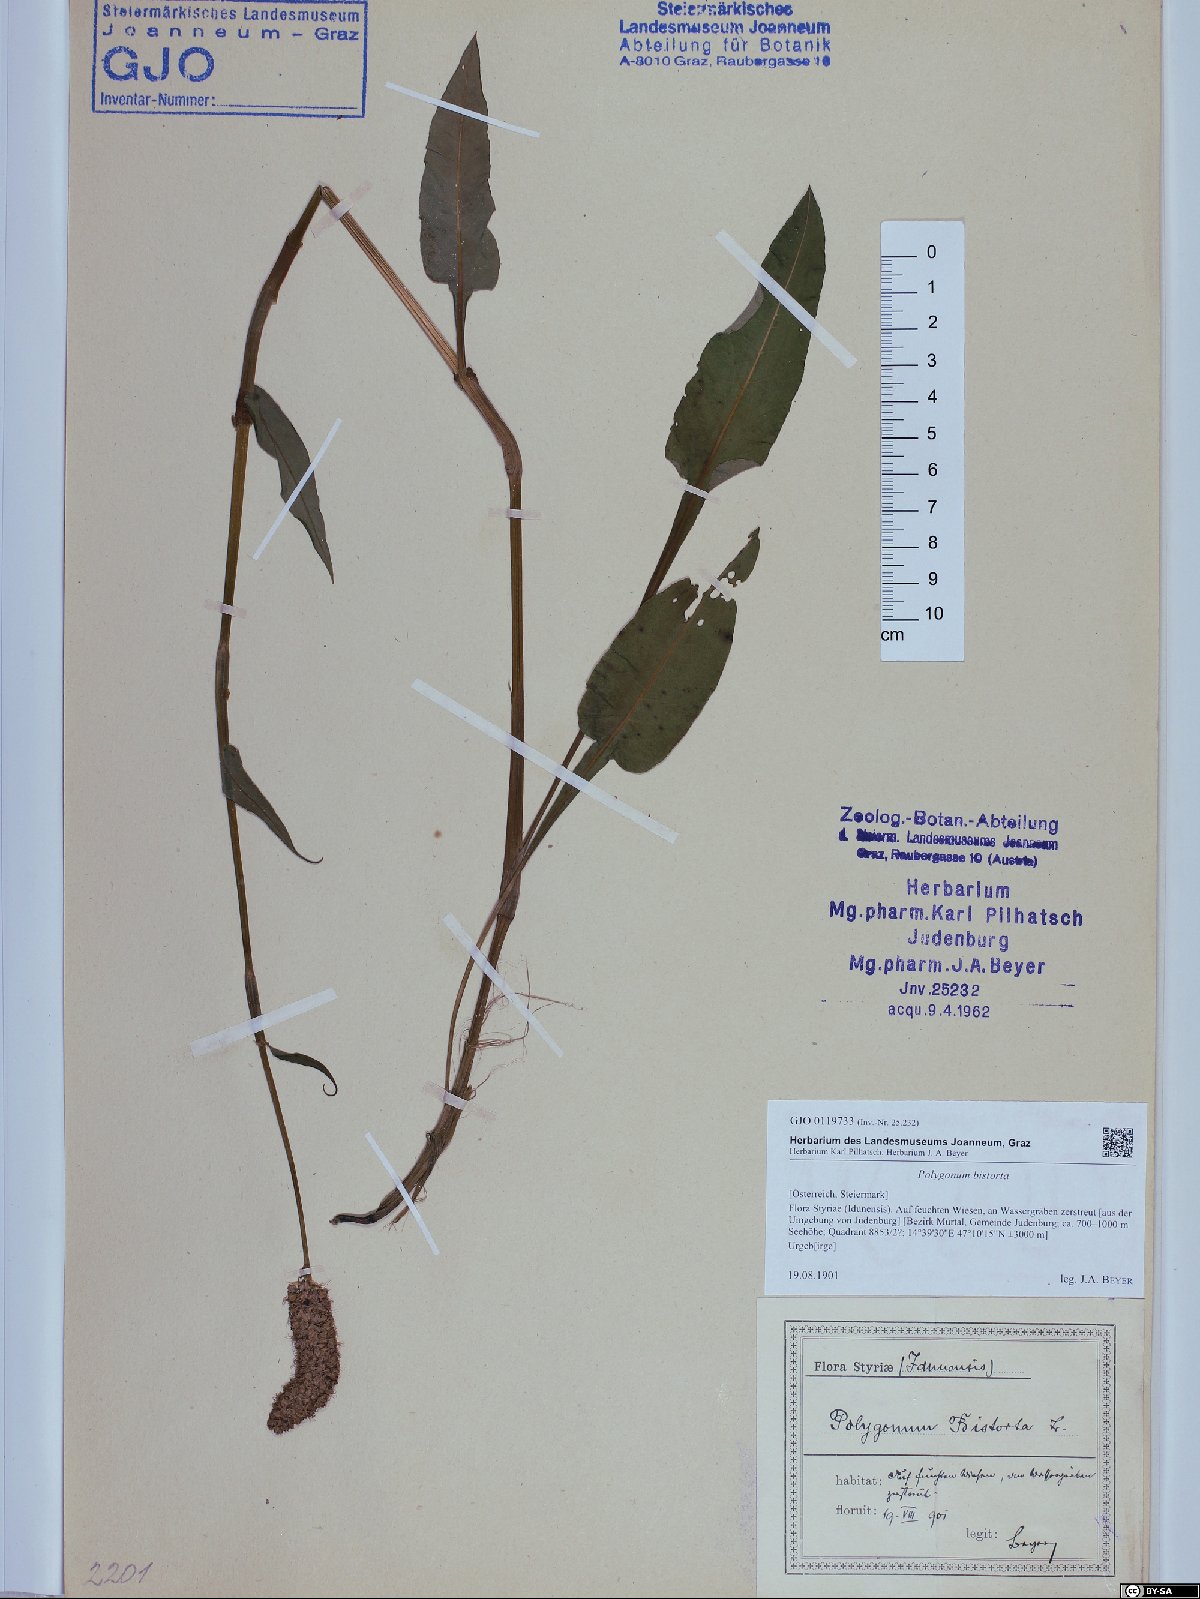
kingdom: Plantae
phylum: Tracheophyta
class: Magnoliopsida
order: Caryophyllales
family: Polygonaceae
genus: Bistorta
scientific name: Bistorta officinalis
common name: Common bistort
